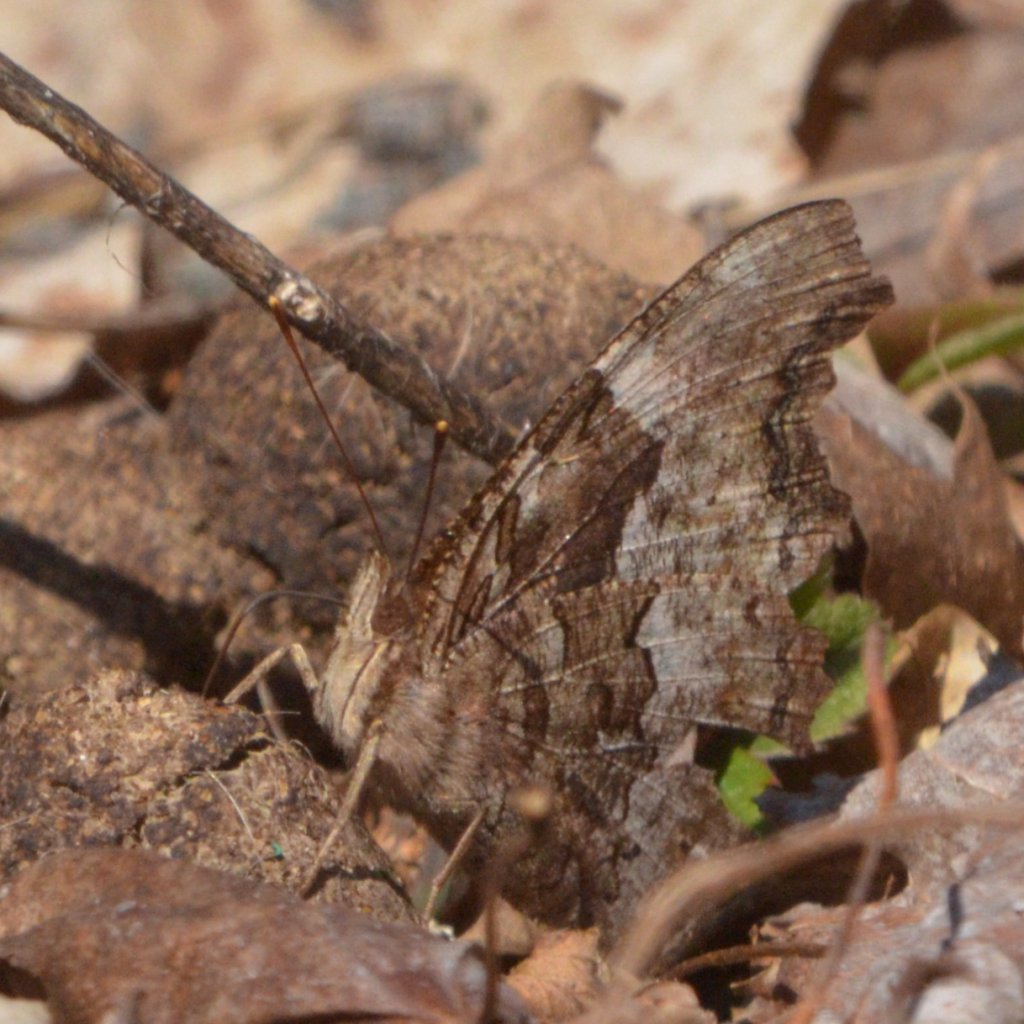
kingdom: Animalia
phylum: Arthropoda
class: Insecta
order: Lepidoptera
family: Nymphalidae
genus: Polygonia
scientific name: Polygonia vaualbum
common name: Compton Tortoiseshell
